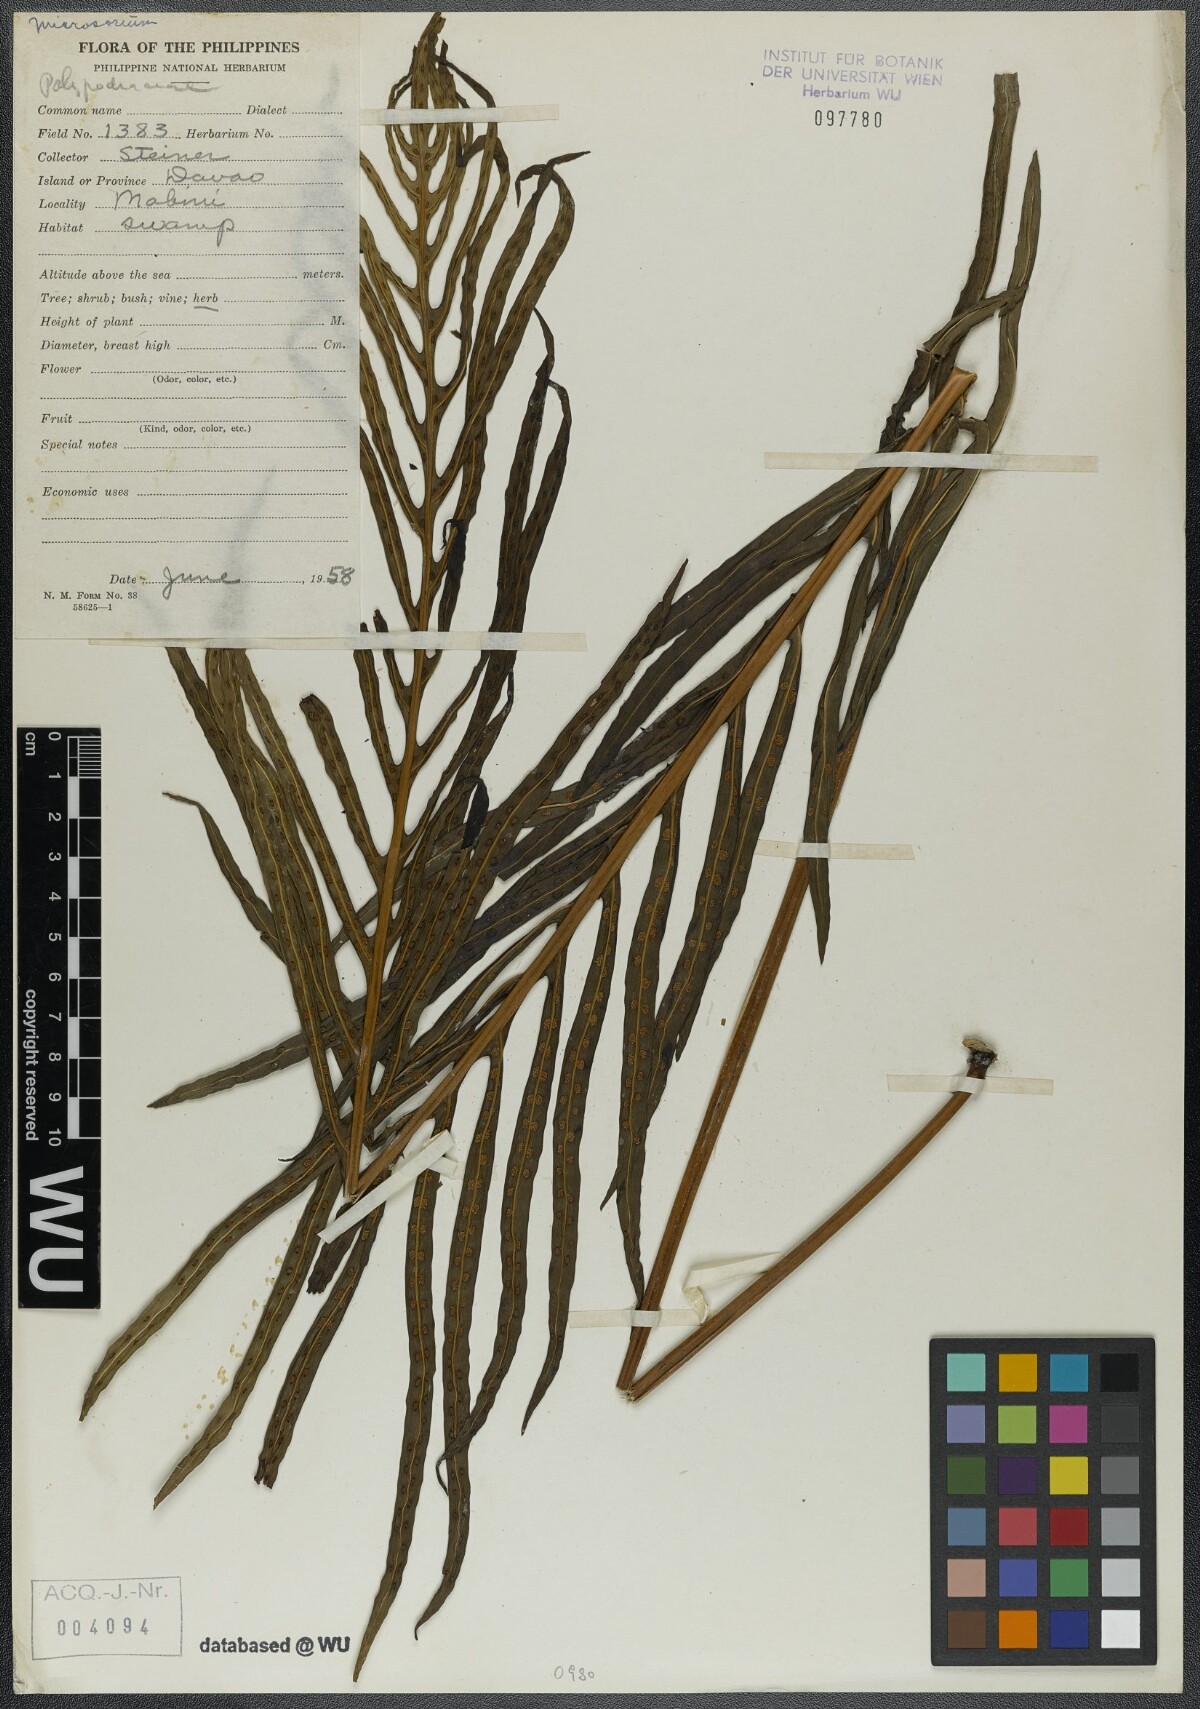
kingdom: Plantae
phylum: Tracheophyta
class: Polypodiopsida
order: Polypodiales
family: Polypodiaceae
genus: Microsorum
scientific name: Microsorum
